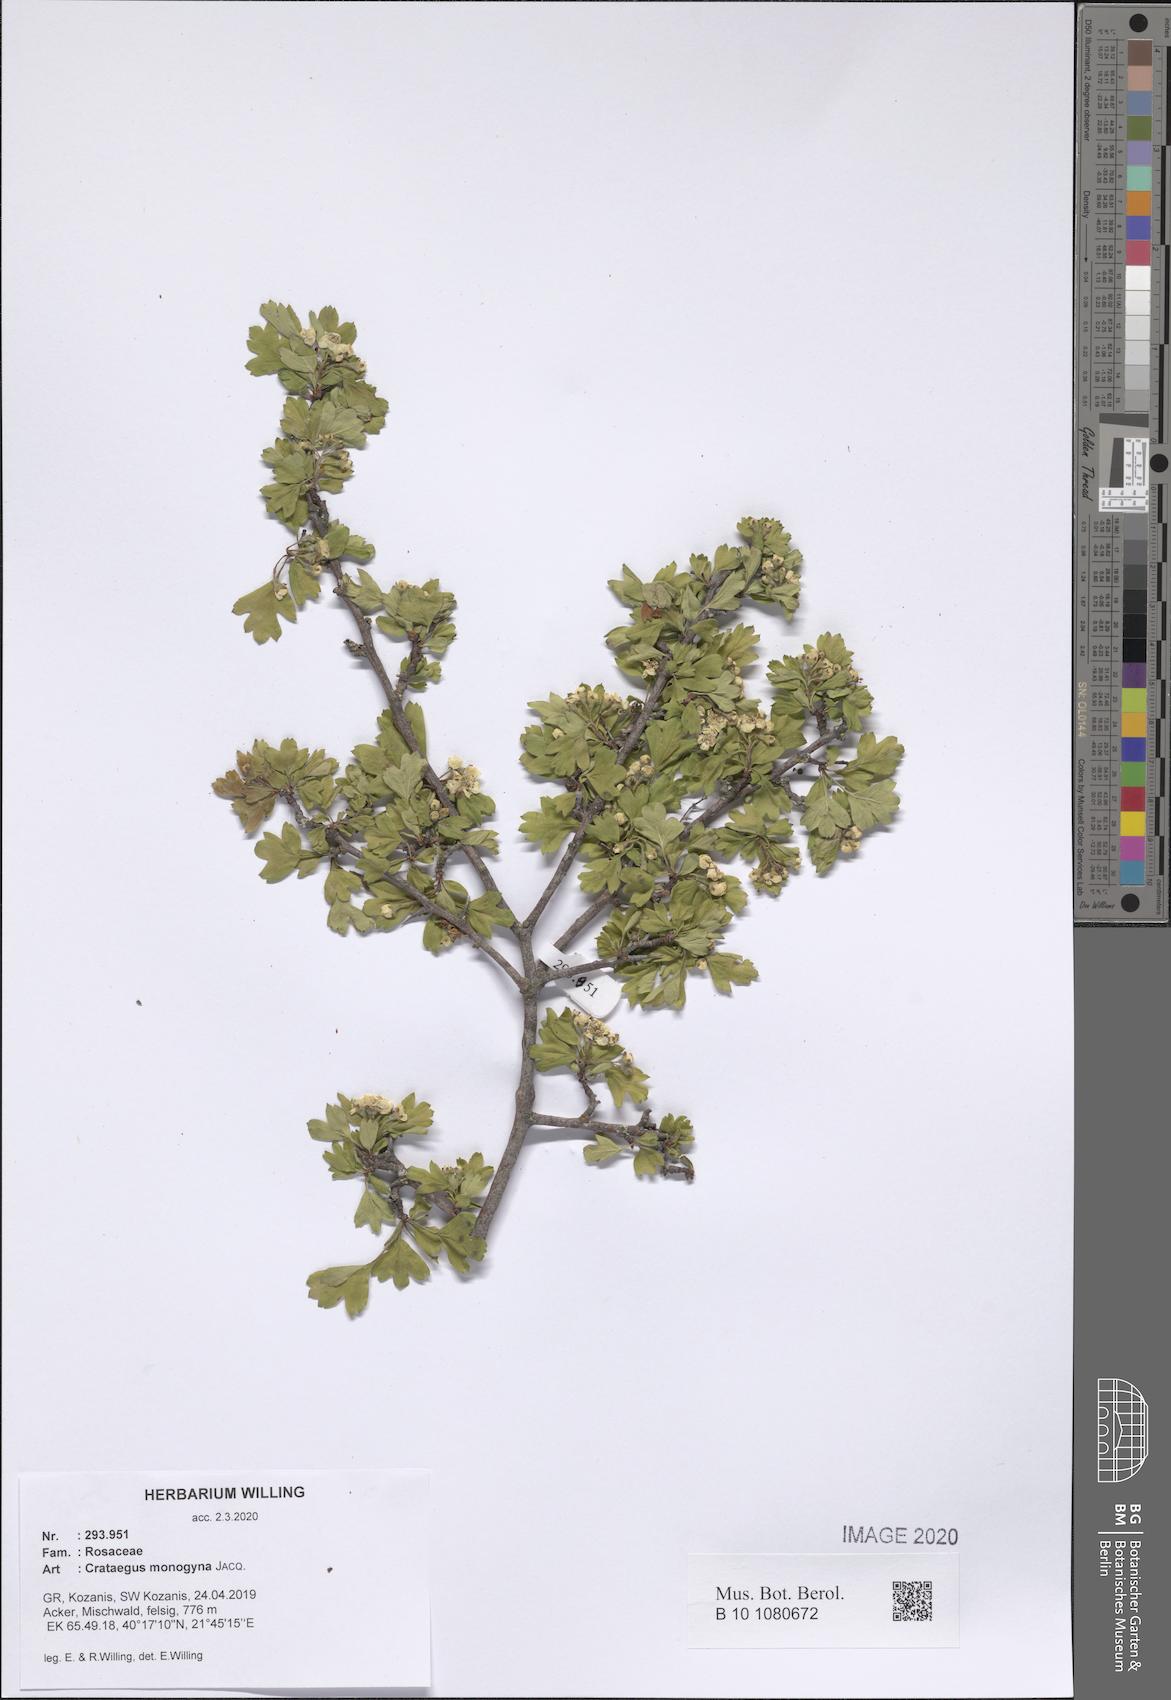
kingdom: Plantae
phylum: Tracheophyta
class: Magnoliopsida
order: Rosales
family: Rosaceae
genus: Crataegus
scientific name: Crataegus monogyna
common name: Hawthorn
